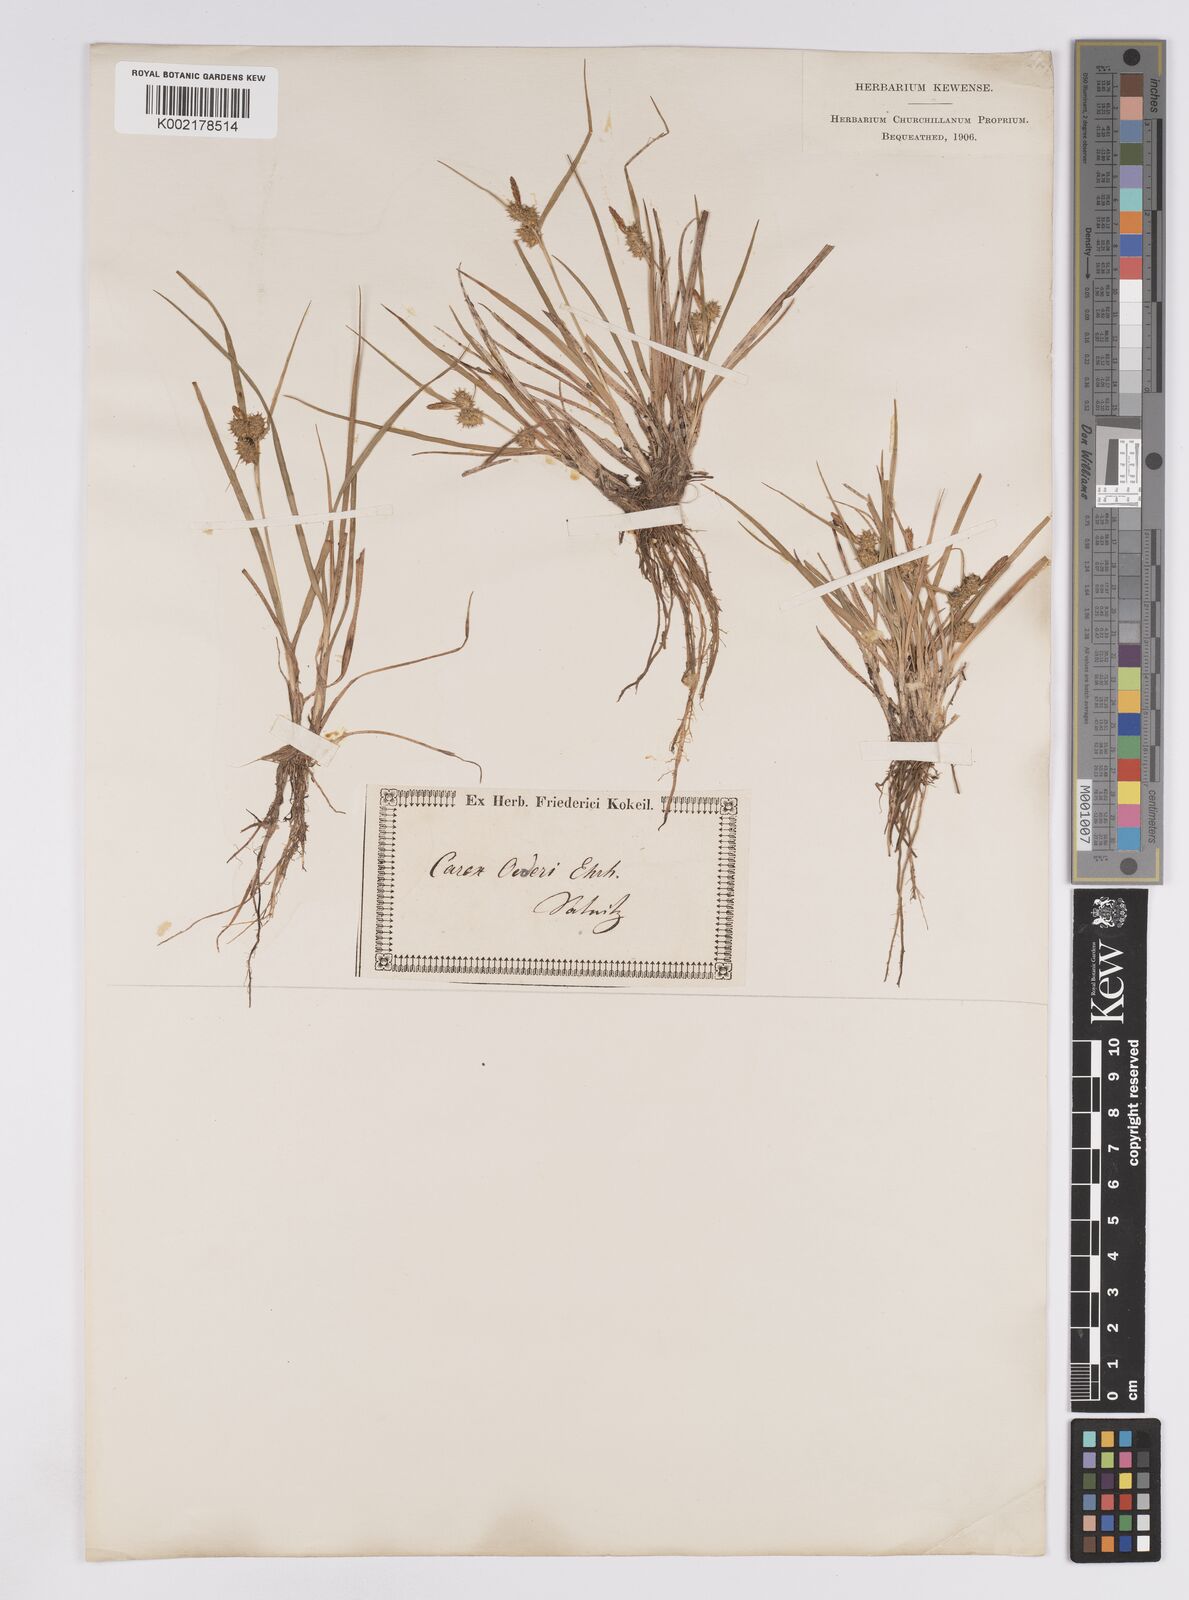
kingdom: Plantae
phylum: Tracheophyta
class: Liliopsida
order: Poales
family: Cyperaceae
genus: Carex
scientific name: Carex demissa
